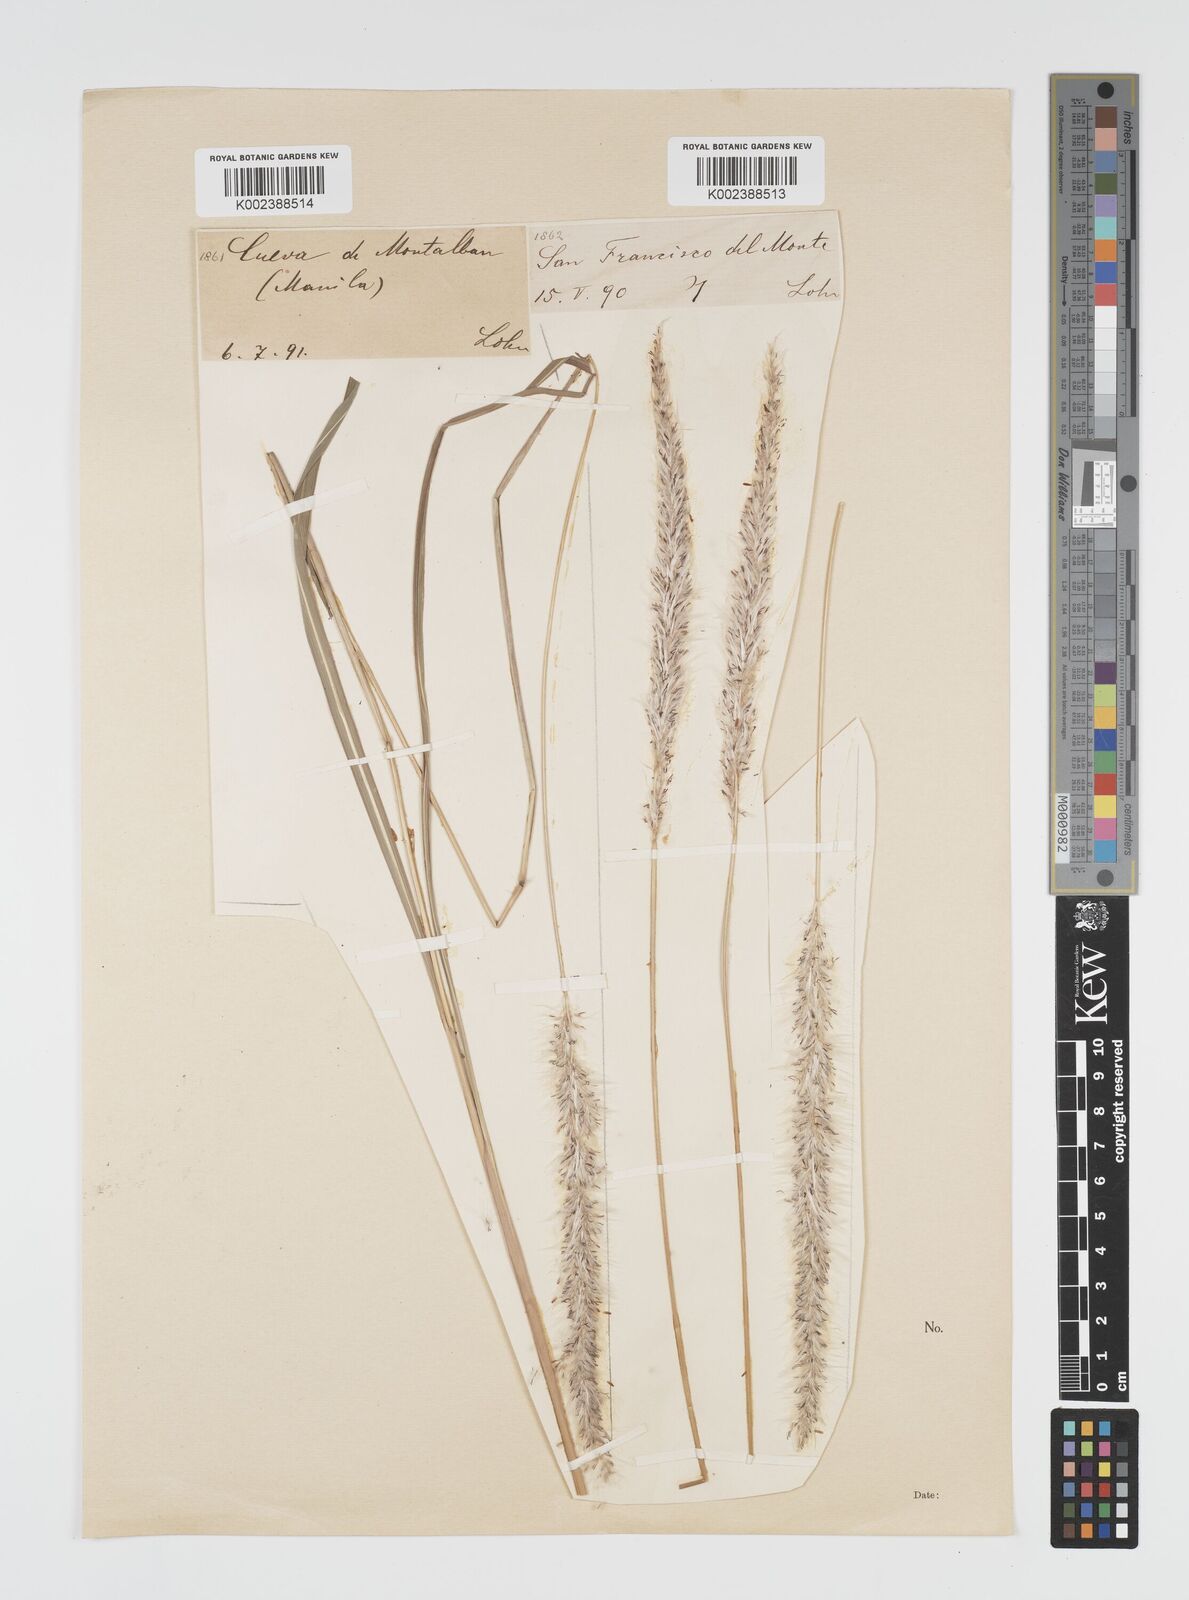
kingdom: Plantae
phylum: Tracheophyta
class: Liliopsida
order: Poales
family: Poaceae
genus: Imperata
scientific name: Imperata cylindrica
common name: Cogongrass
